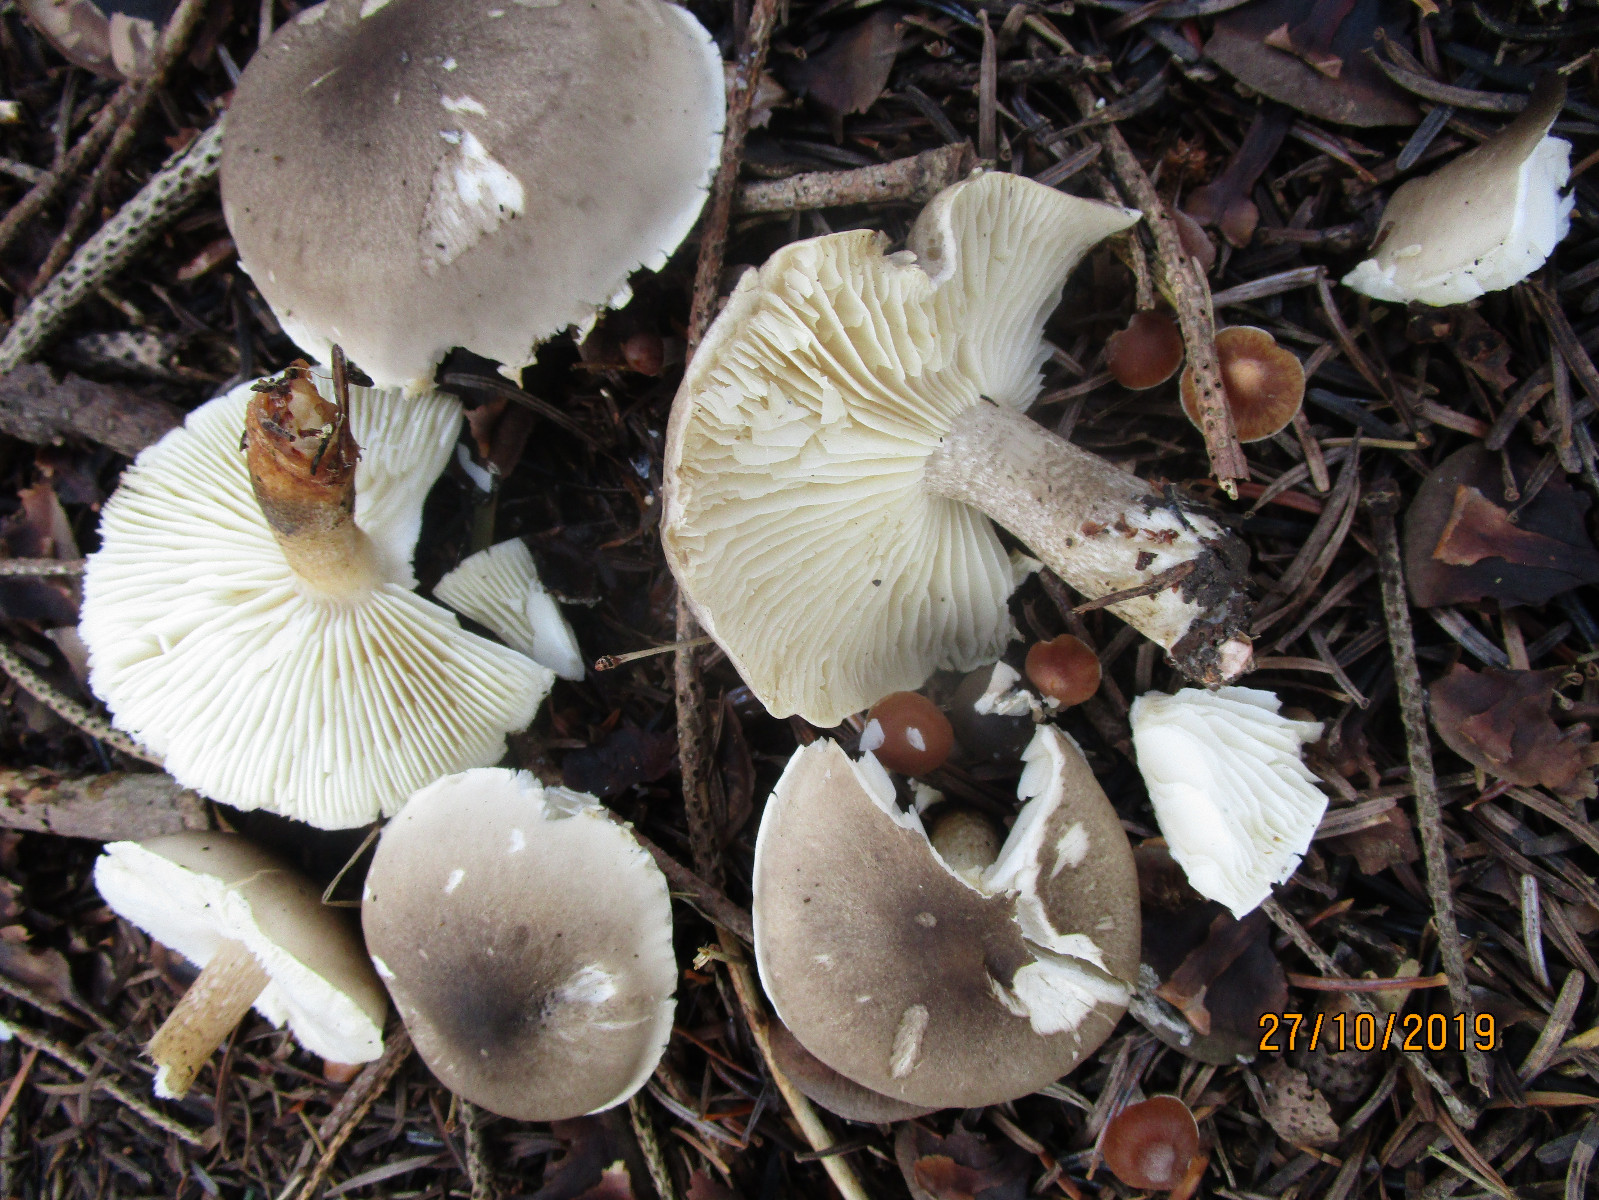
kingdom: Fungi
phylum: Basidiomycota
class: Agaricomycetes
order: Agaricales
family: Tricholomataceae
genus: Tricholoma
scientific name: Tricholoma saponaceum
